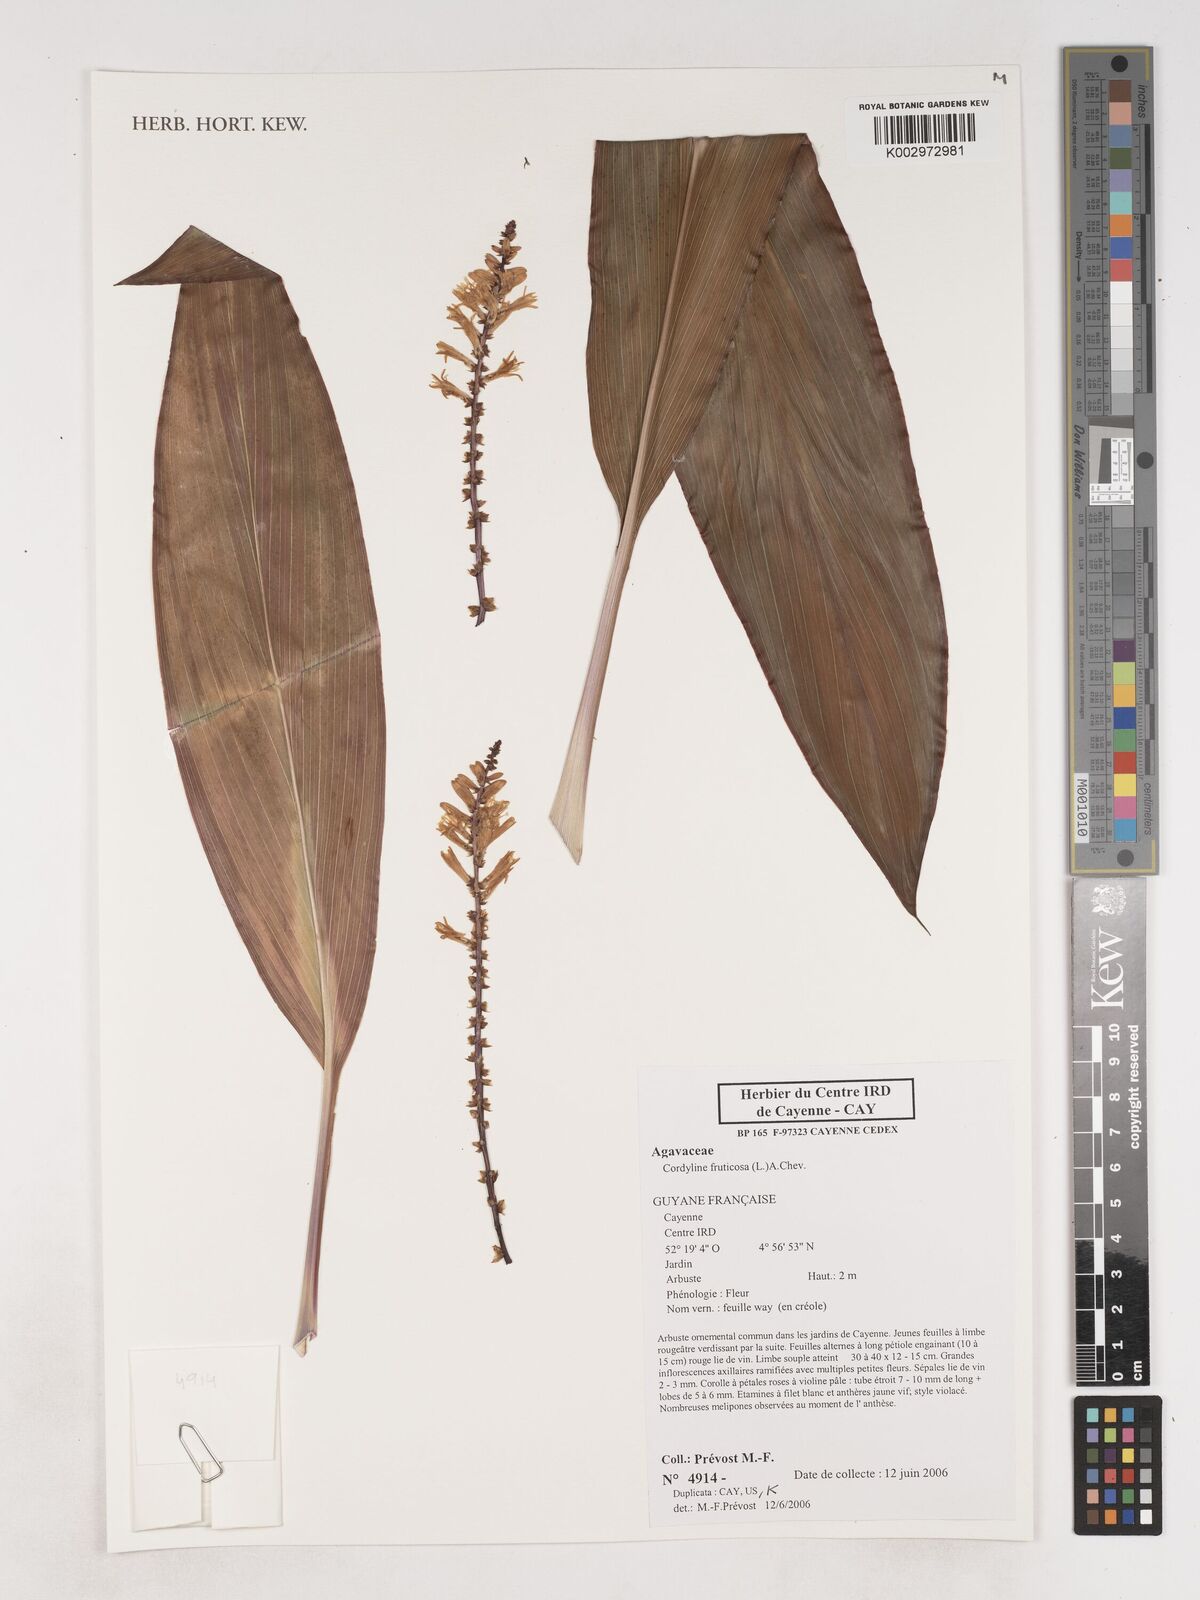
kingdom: Plantae
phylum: Tracheophyta
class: Liliopsida
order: Asparagales
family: Asparagaceae
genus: Cordyline
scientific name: Cordyline fruticosa
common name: Good-luck-plant
